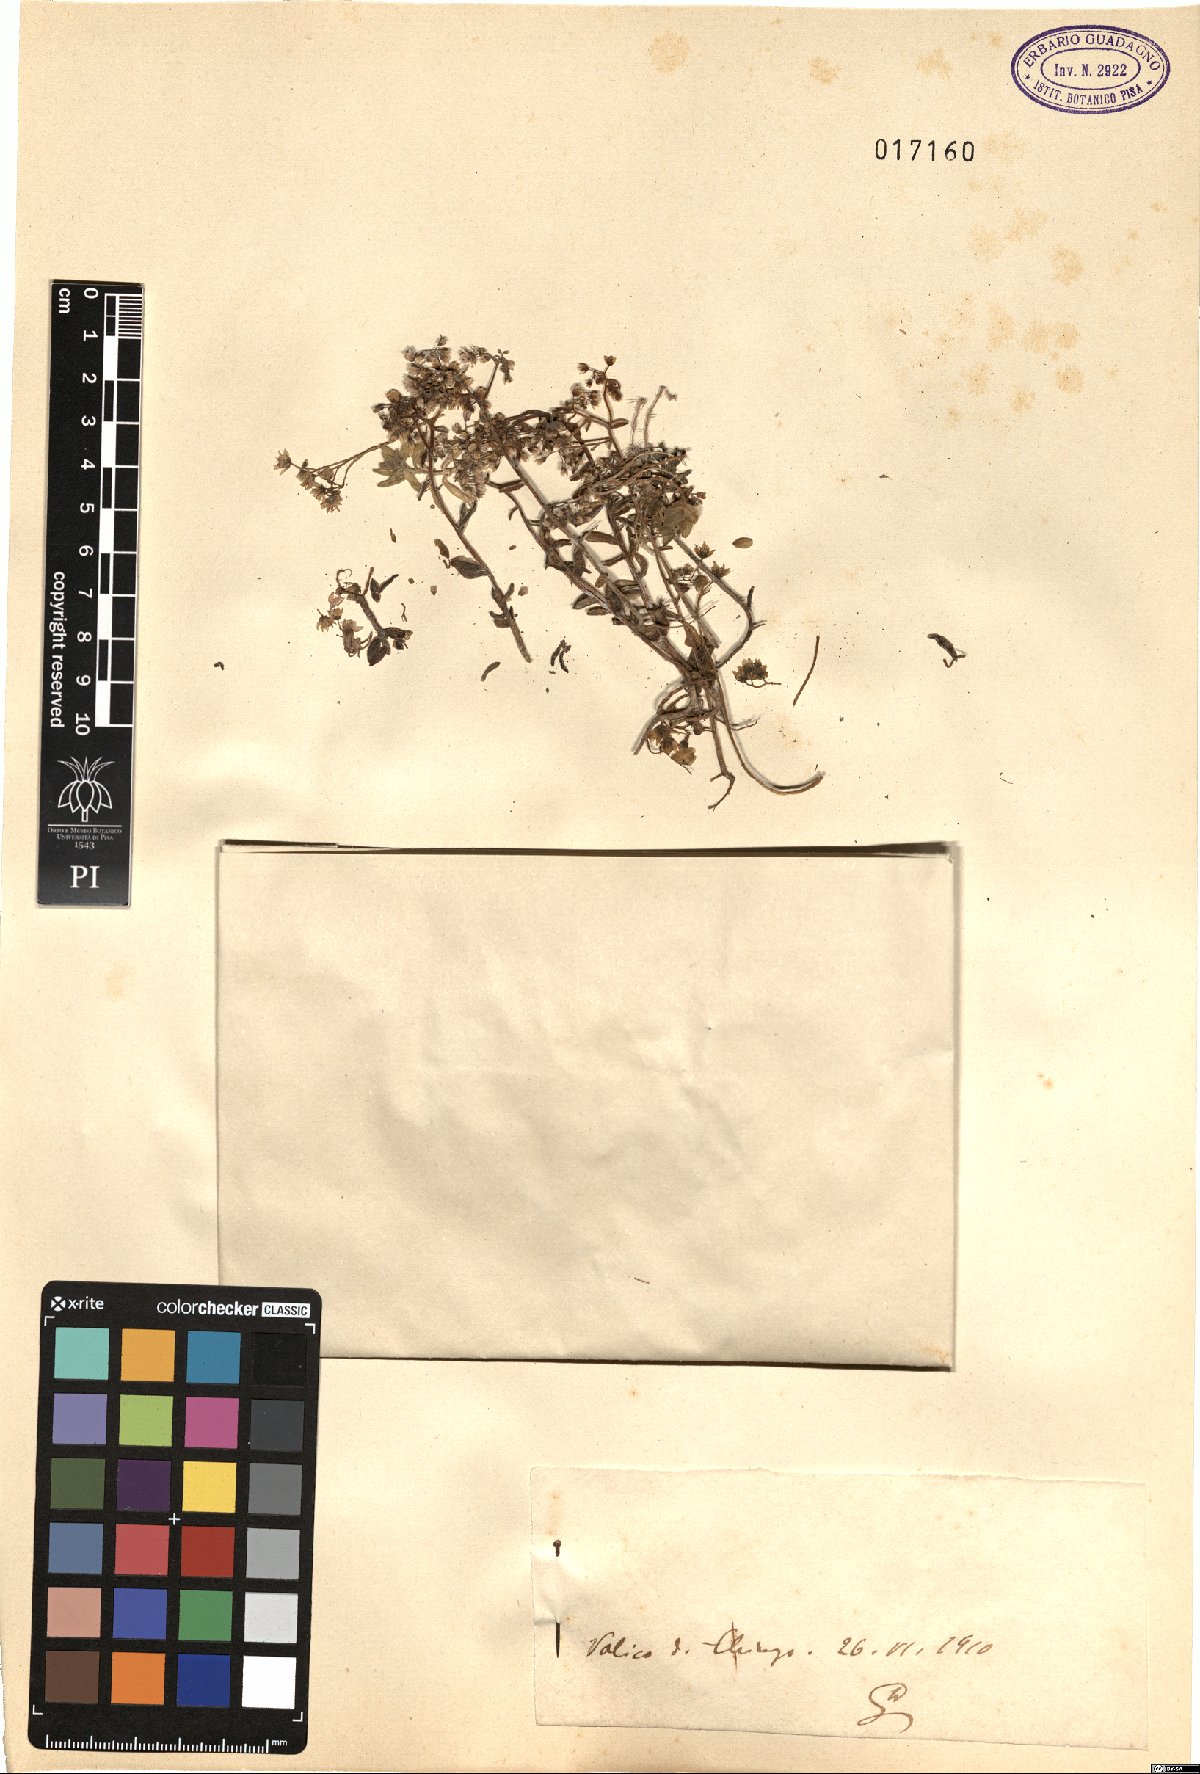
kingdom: Plantae
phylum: Tracheophyta
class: Magnoliopsida
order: Saxifragales
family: Crassulaceae
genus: Sedum
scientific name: Sedum
